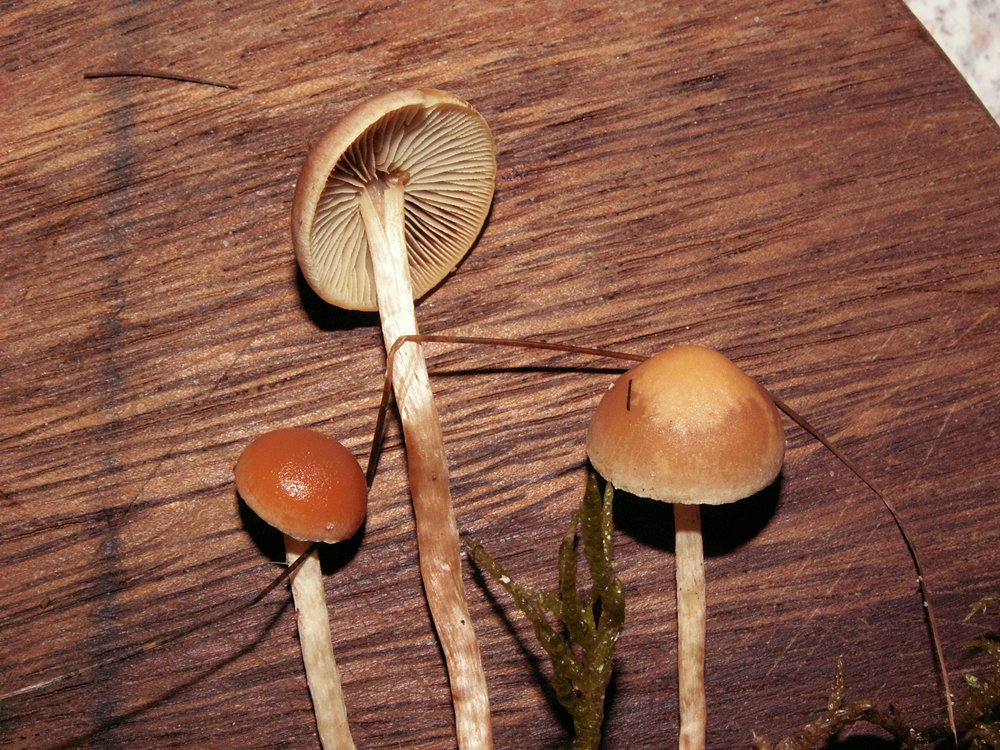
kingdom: Fungi
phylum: Basidiomycota
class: Agaricomycetes
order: Agaricales
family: Strophariaceae
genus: Bogbodia
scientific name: Bogbodia uda
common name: tørve-svovlhat
